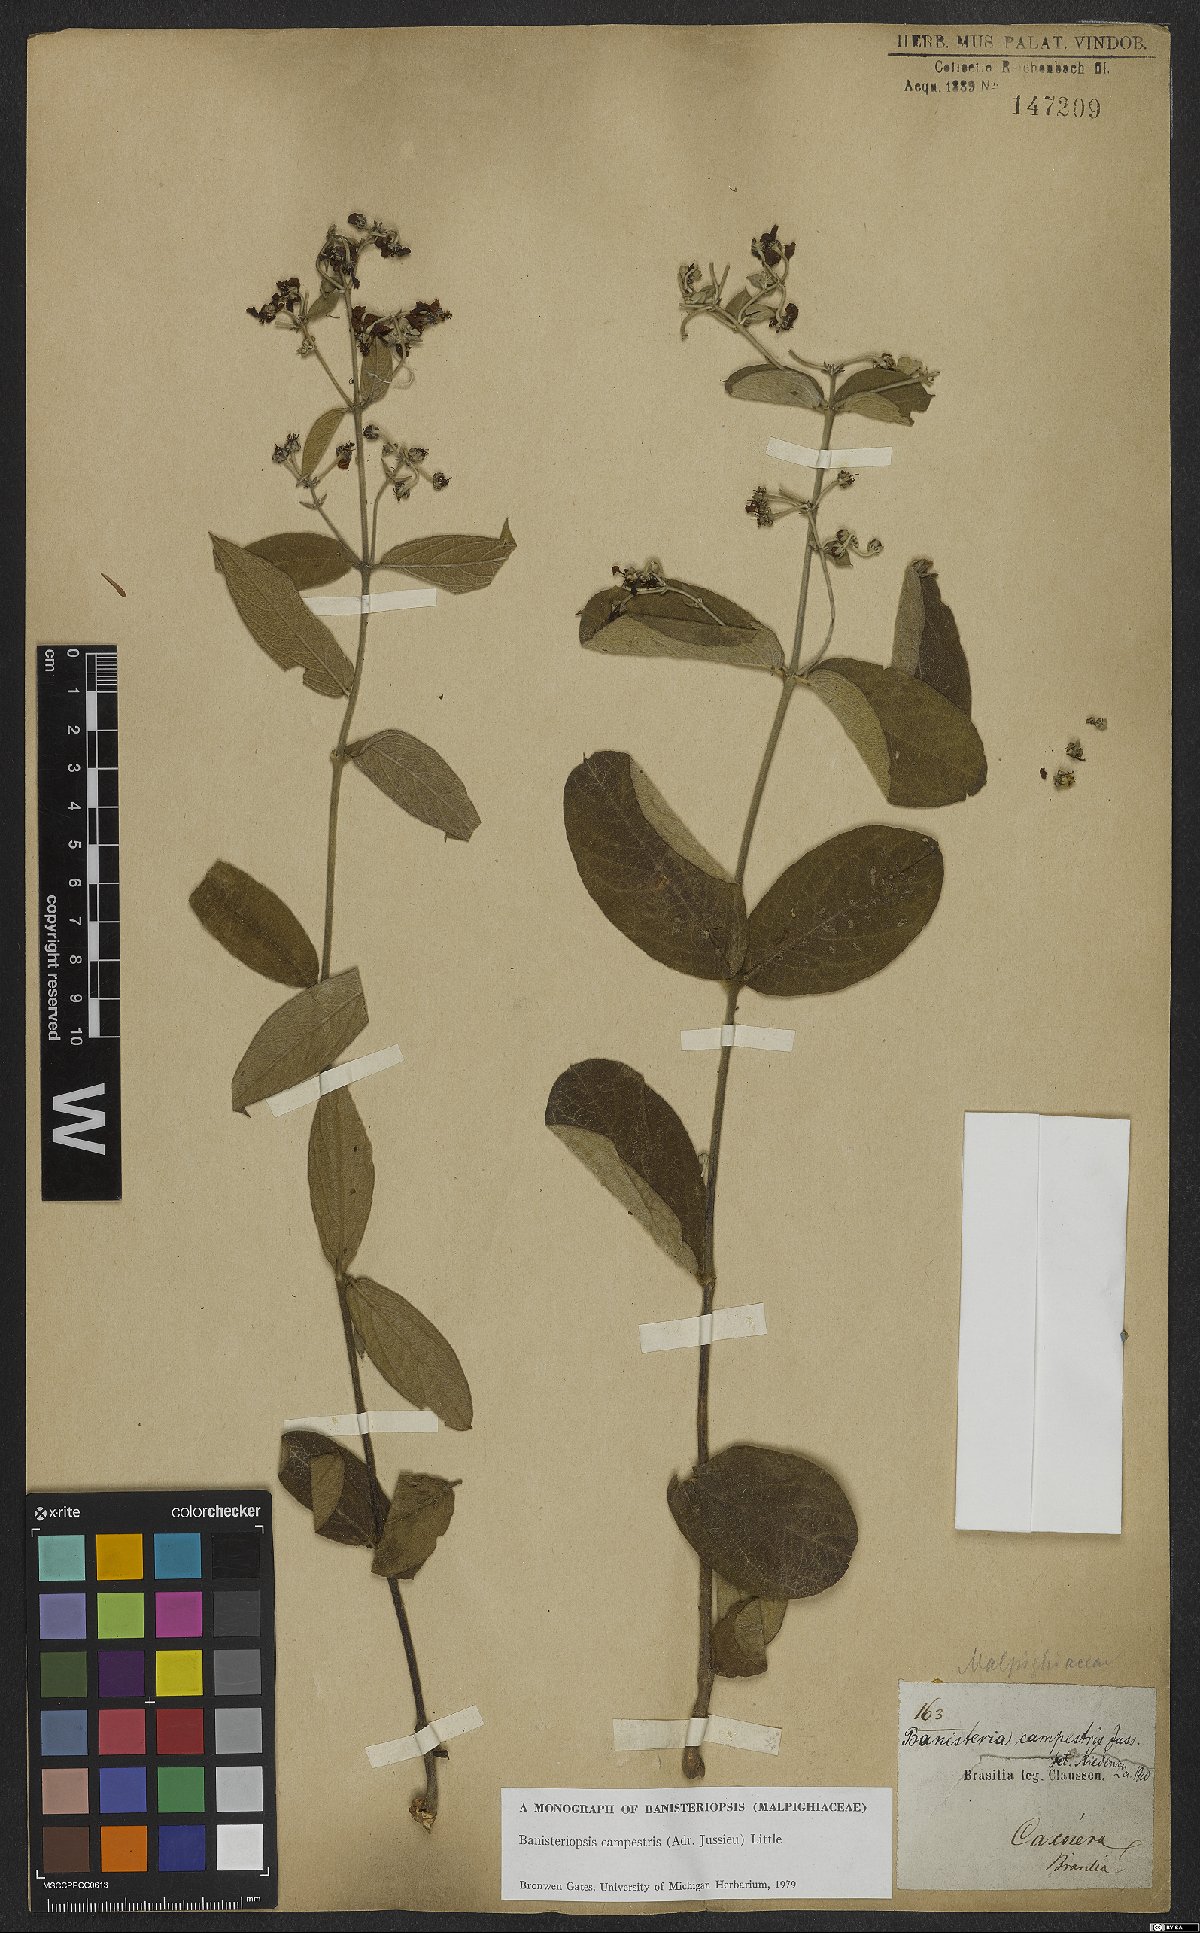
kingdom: Plantae
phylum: Tracheophyta
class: Magnoliopsida
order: Malpighiales
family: Malpighiaceae
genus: Banisteriopsis
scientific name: Banisteriopsis campestris
